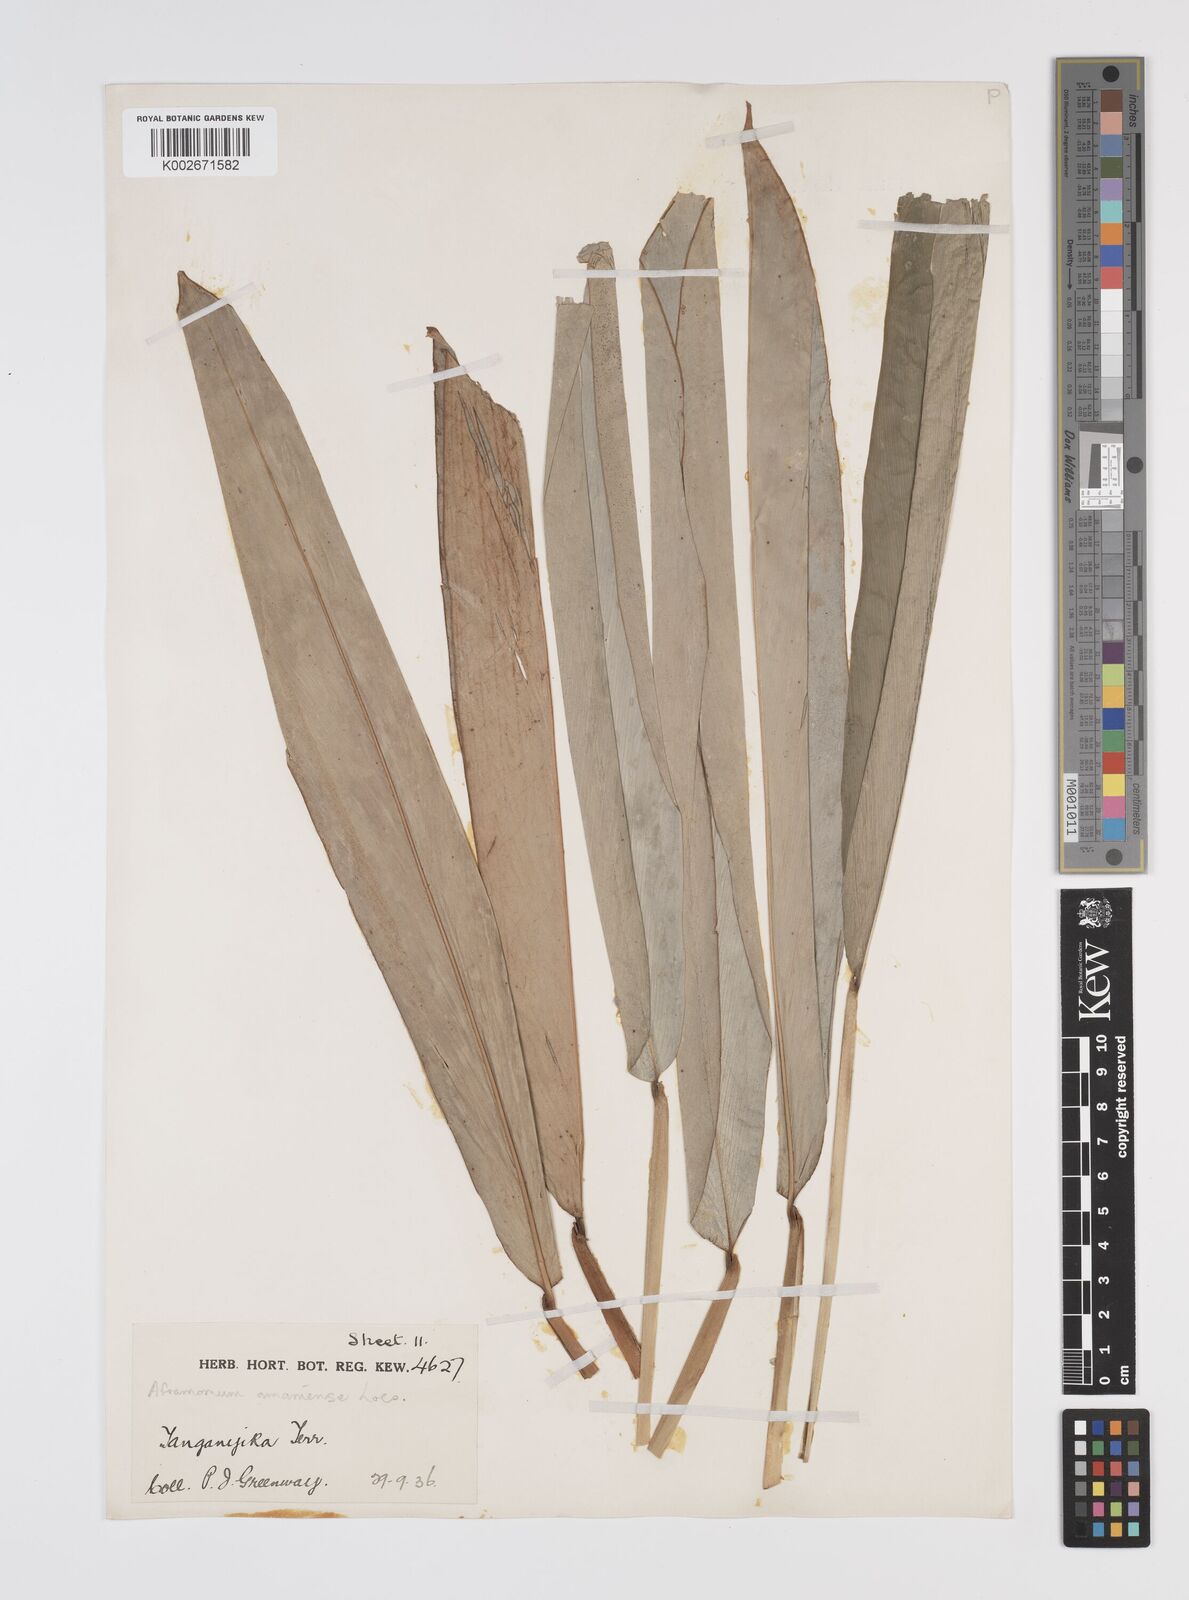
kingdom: Plantae
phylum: Tracheophyta
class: Liliopsida
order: Zingiberales
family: Zingiberaceae
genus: Aframomum
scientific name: Aframomum limbatum
